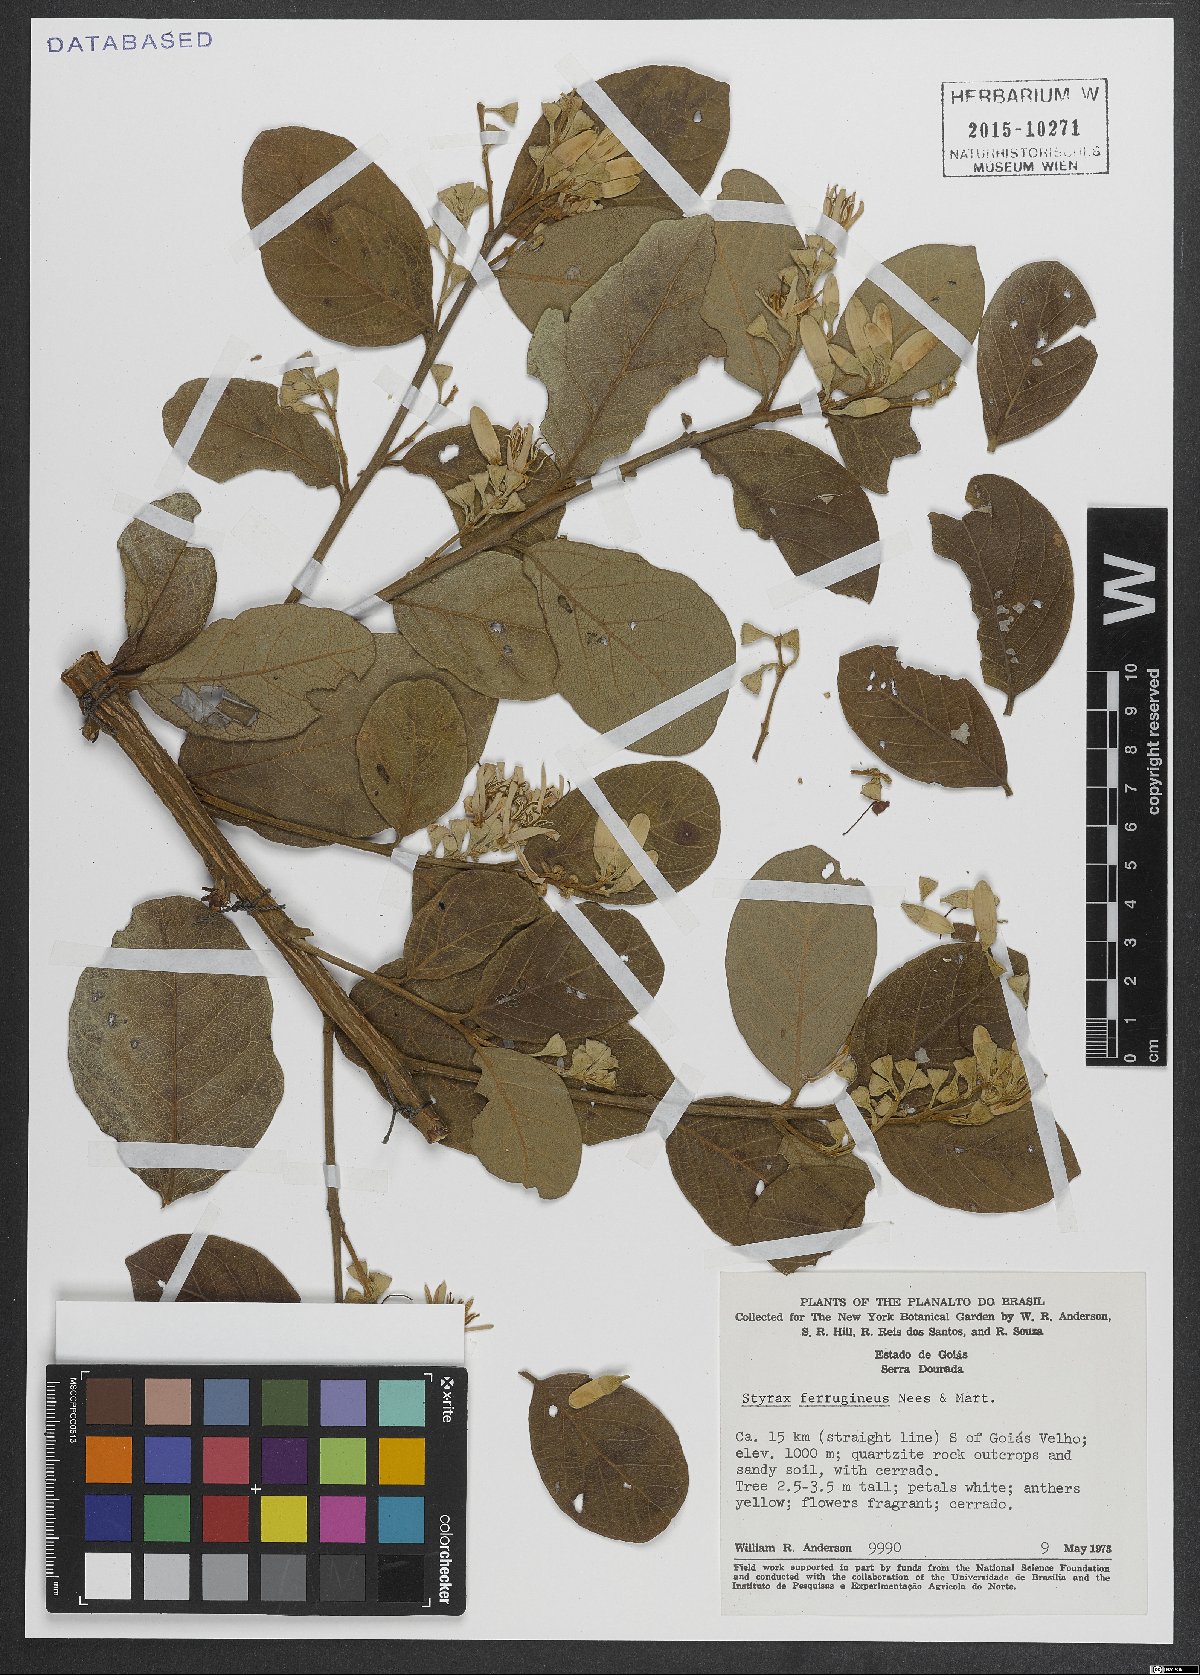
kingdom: Plantae
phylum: Tracheophyta
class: Magnoliopsida
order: Ericales
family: Styracaceae
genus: Styrax
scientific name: Styrax ferrugineus
